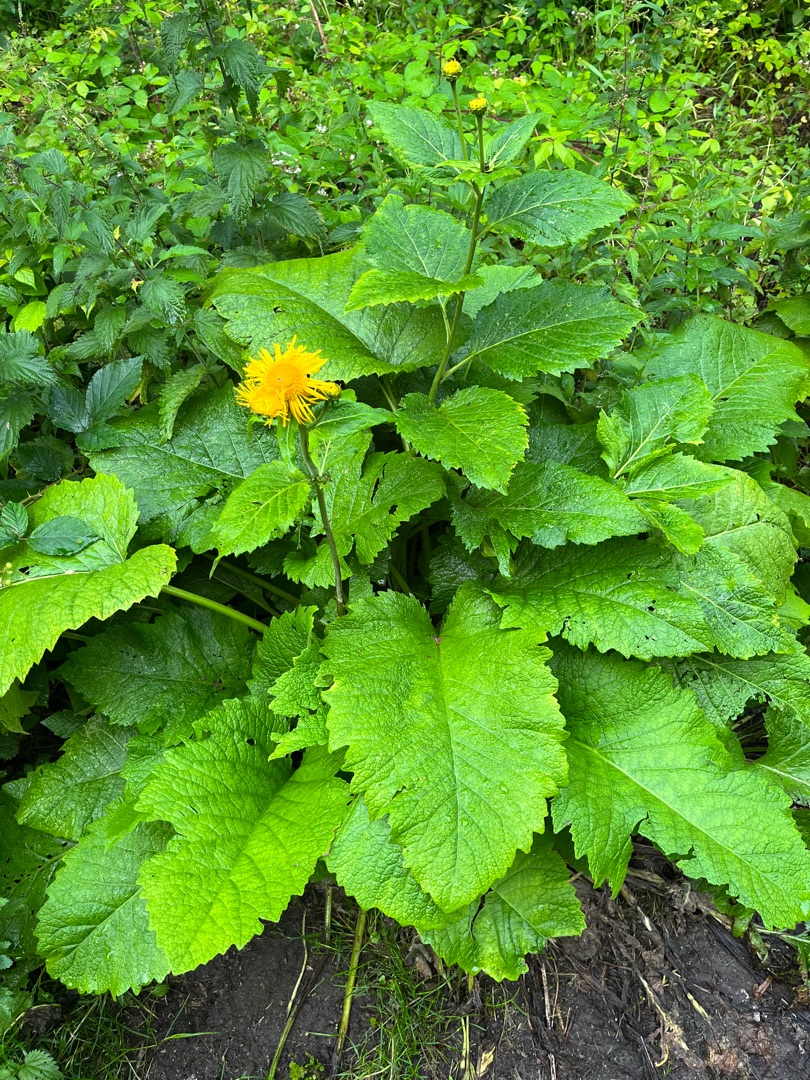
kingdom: Plantae
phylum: Tracheophyta
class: Magnoliopsida
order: Asterales
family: Asteraceae
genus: Telekia
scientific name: Telekia speciosa
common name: Tusindstråle
